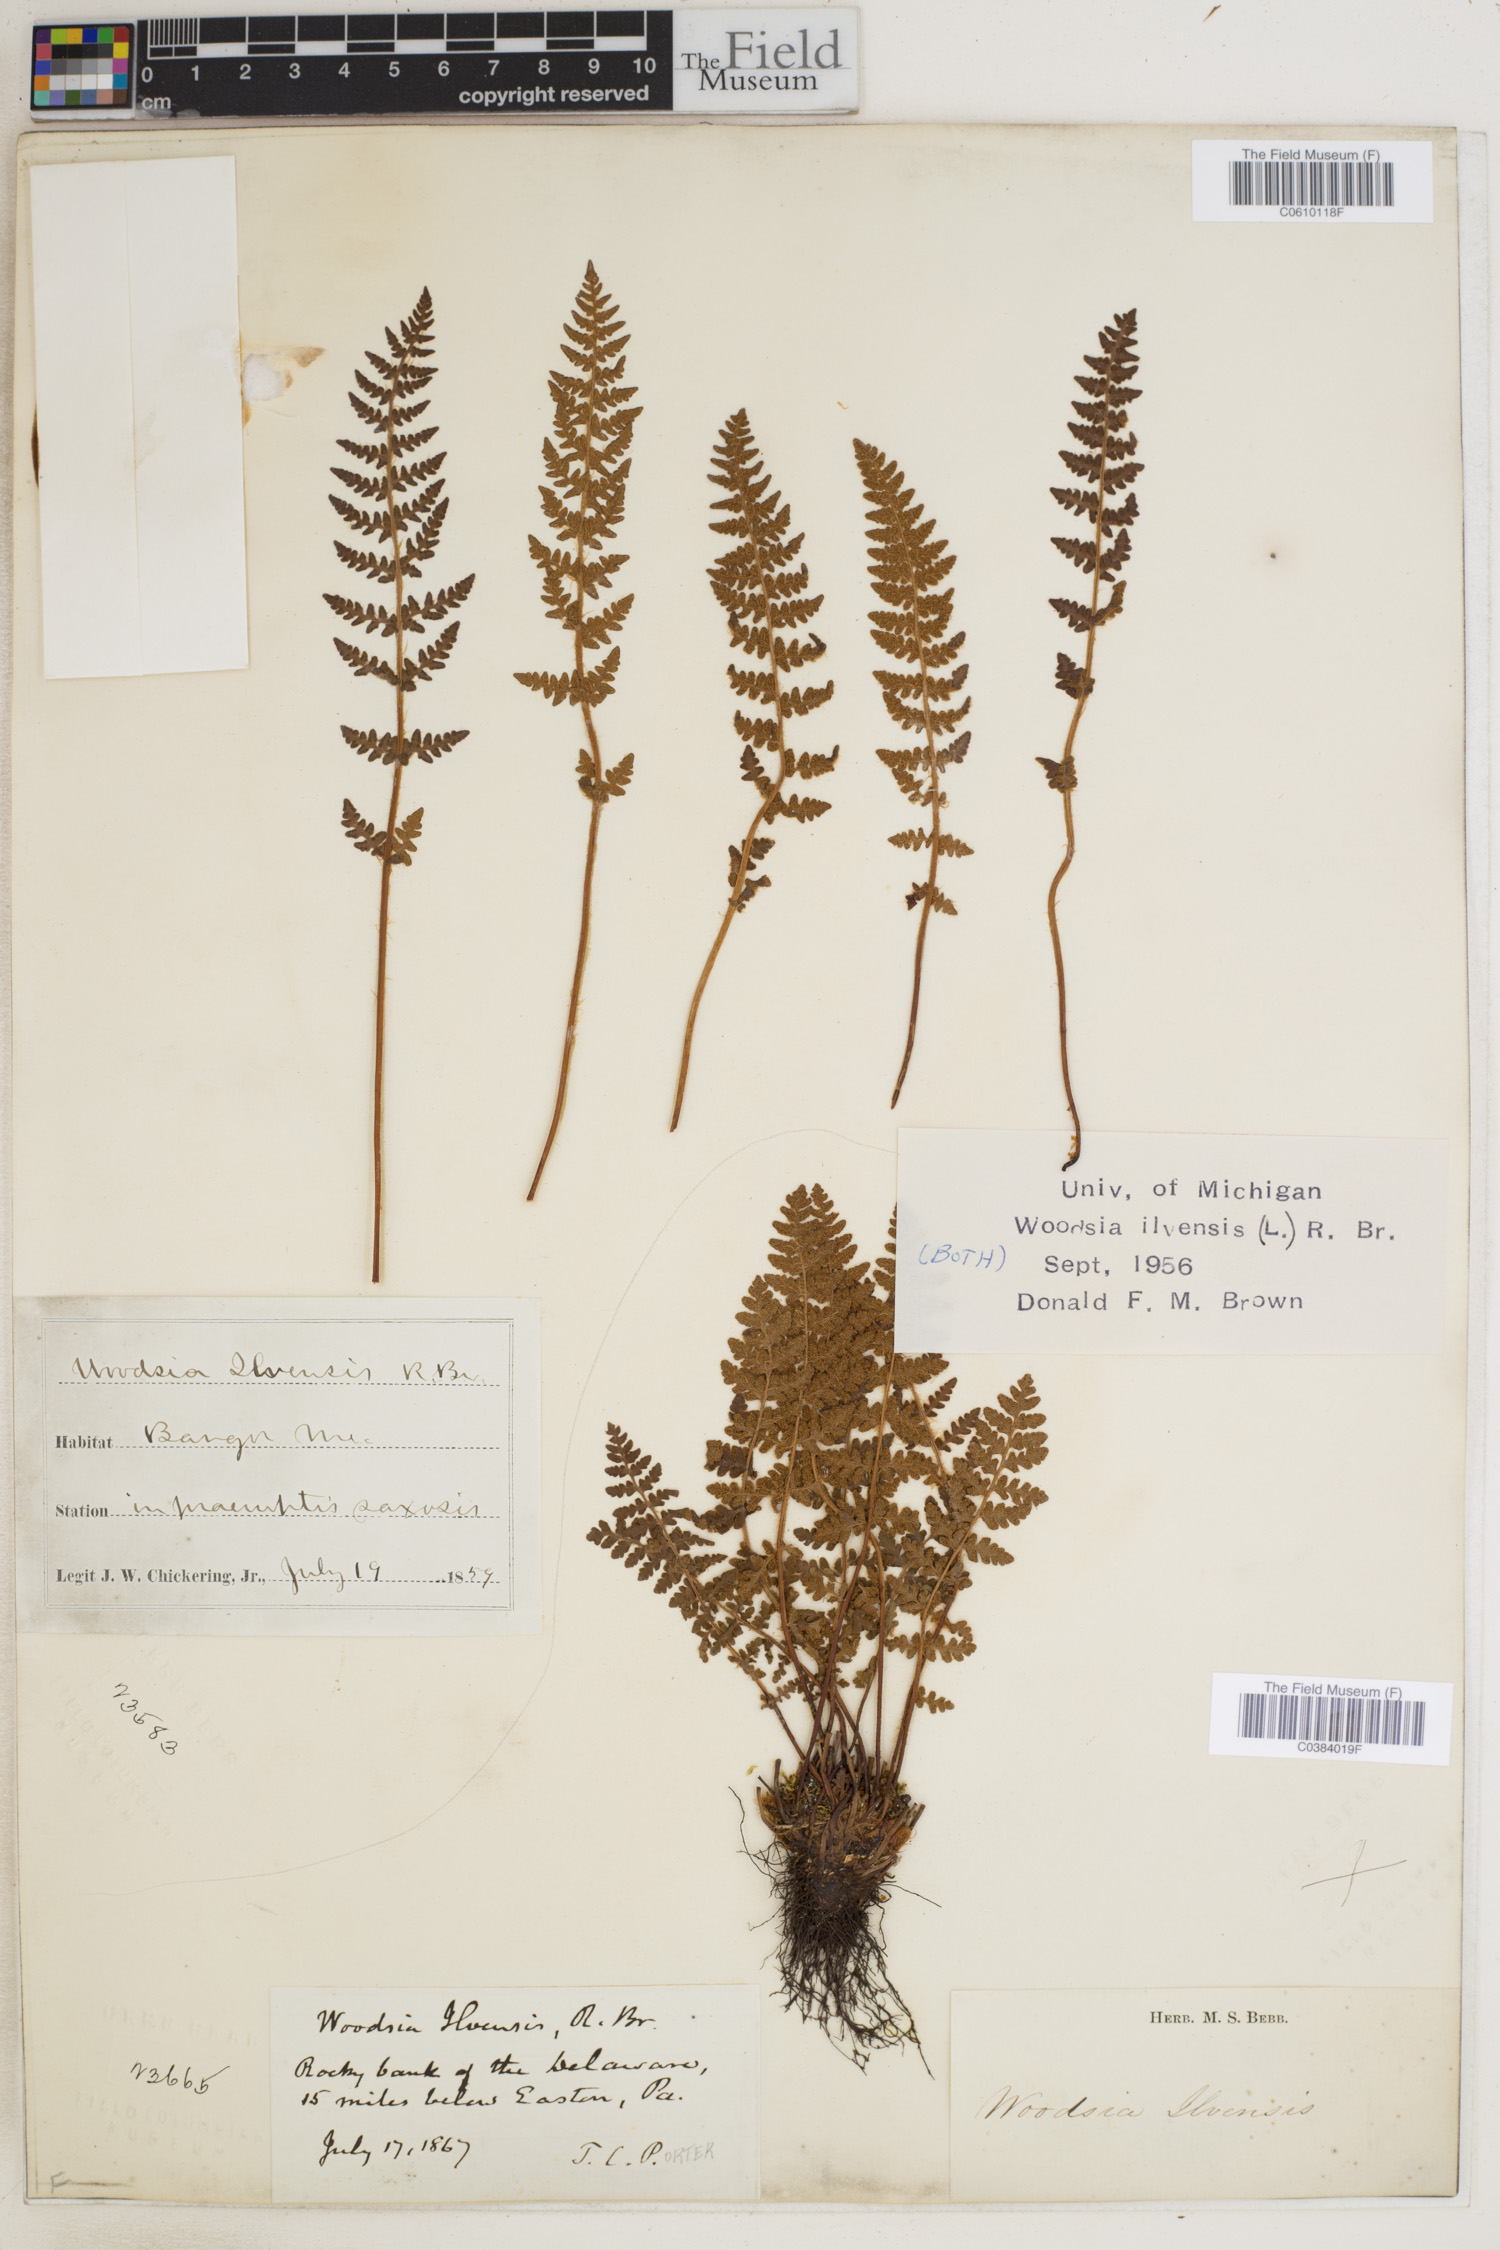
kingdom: Plantae
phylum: Tracheophyta
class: Polypodiopsida
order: Polypodiales
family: Woodsiaceae
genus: Woodsia
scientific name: Woodsia ilvensis
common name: Fragrant woodsia
